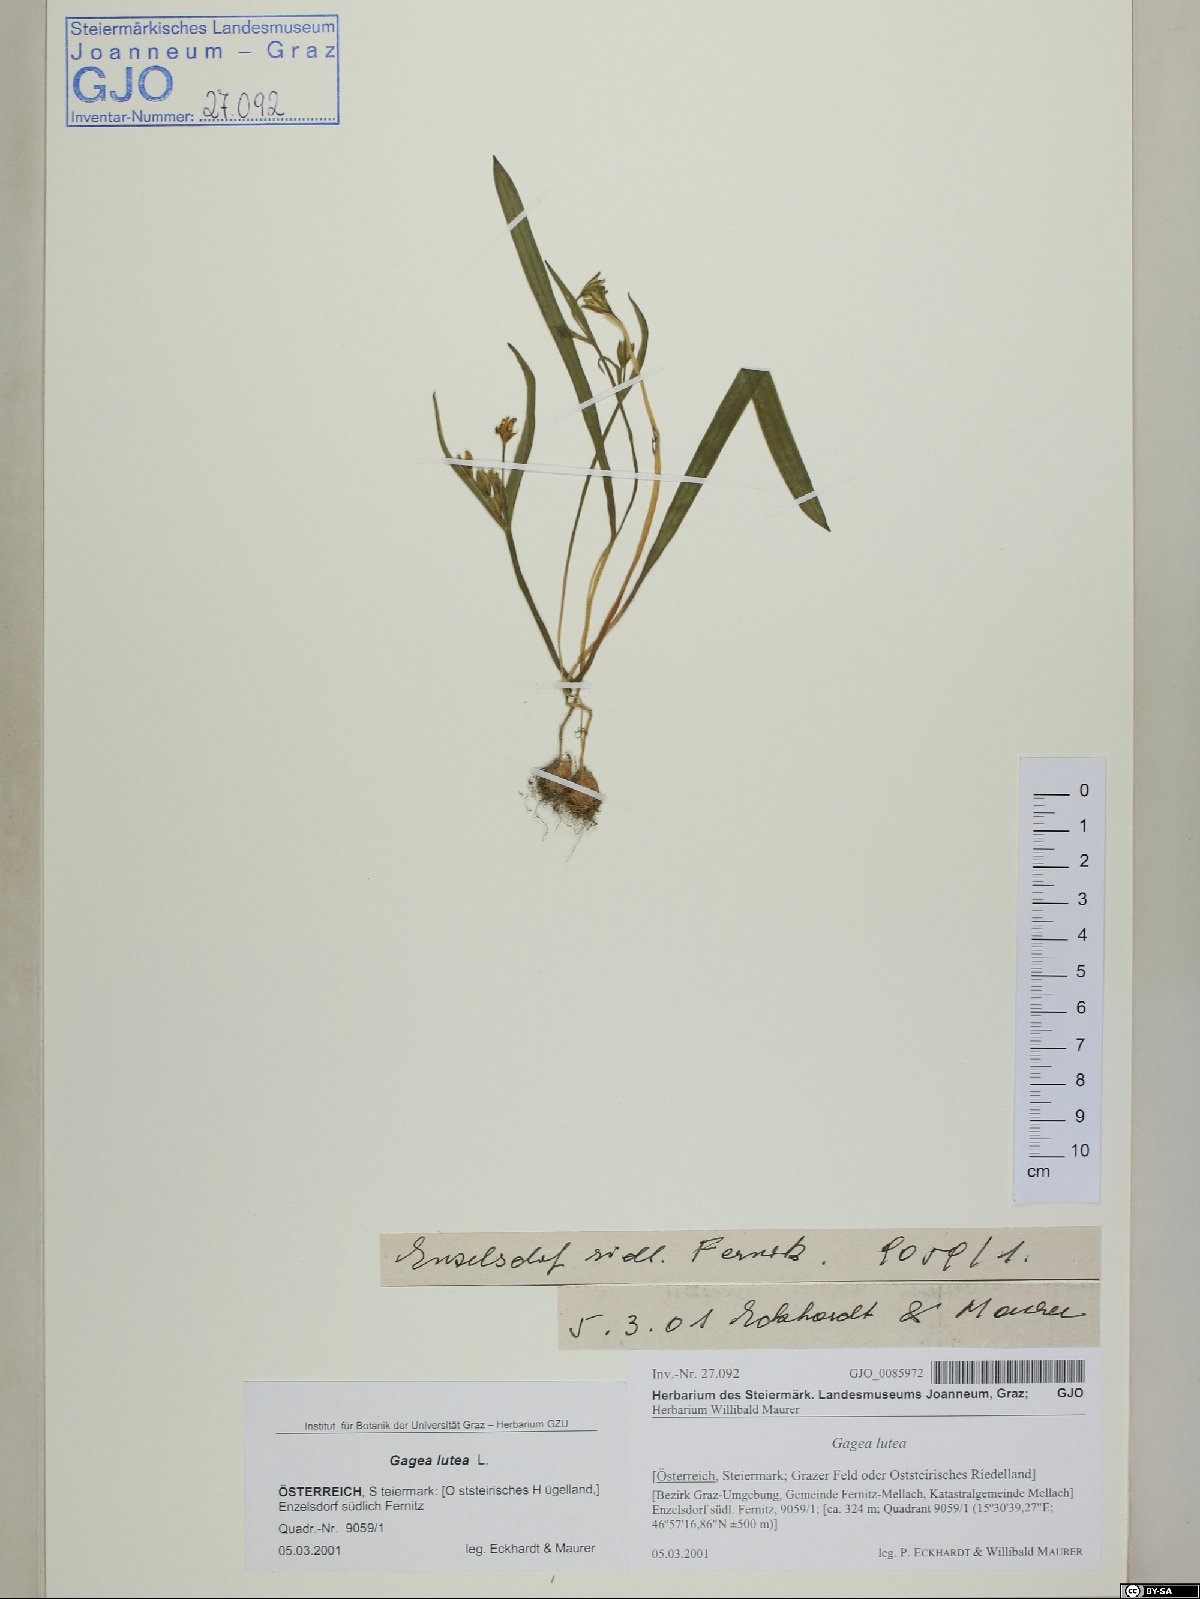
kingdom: Plantae
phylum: Tracheophyta
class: Liliopsida
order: Liliales
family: Liliaceae
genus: Gagea
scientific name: Gagea lutea
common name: Yellow star-of-bethlehem
